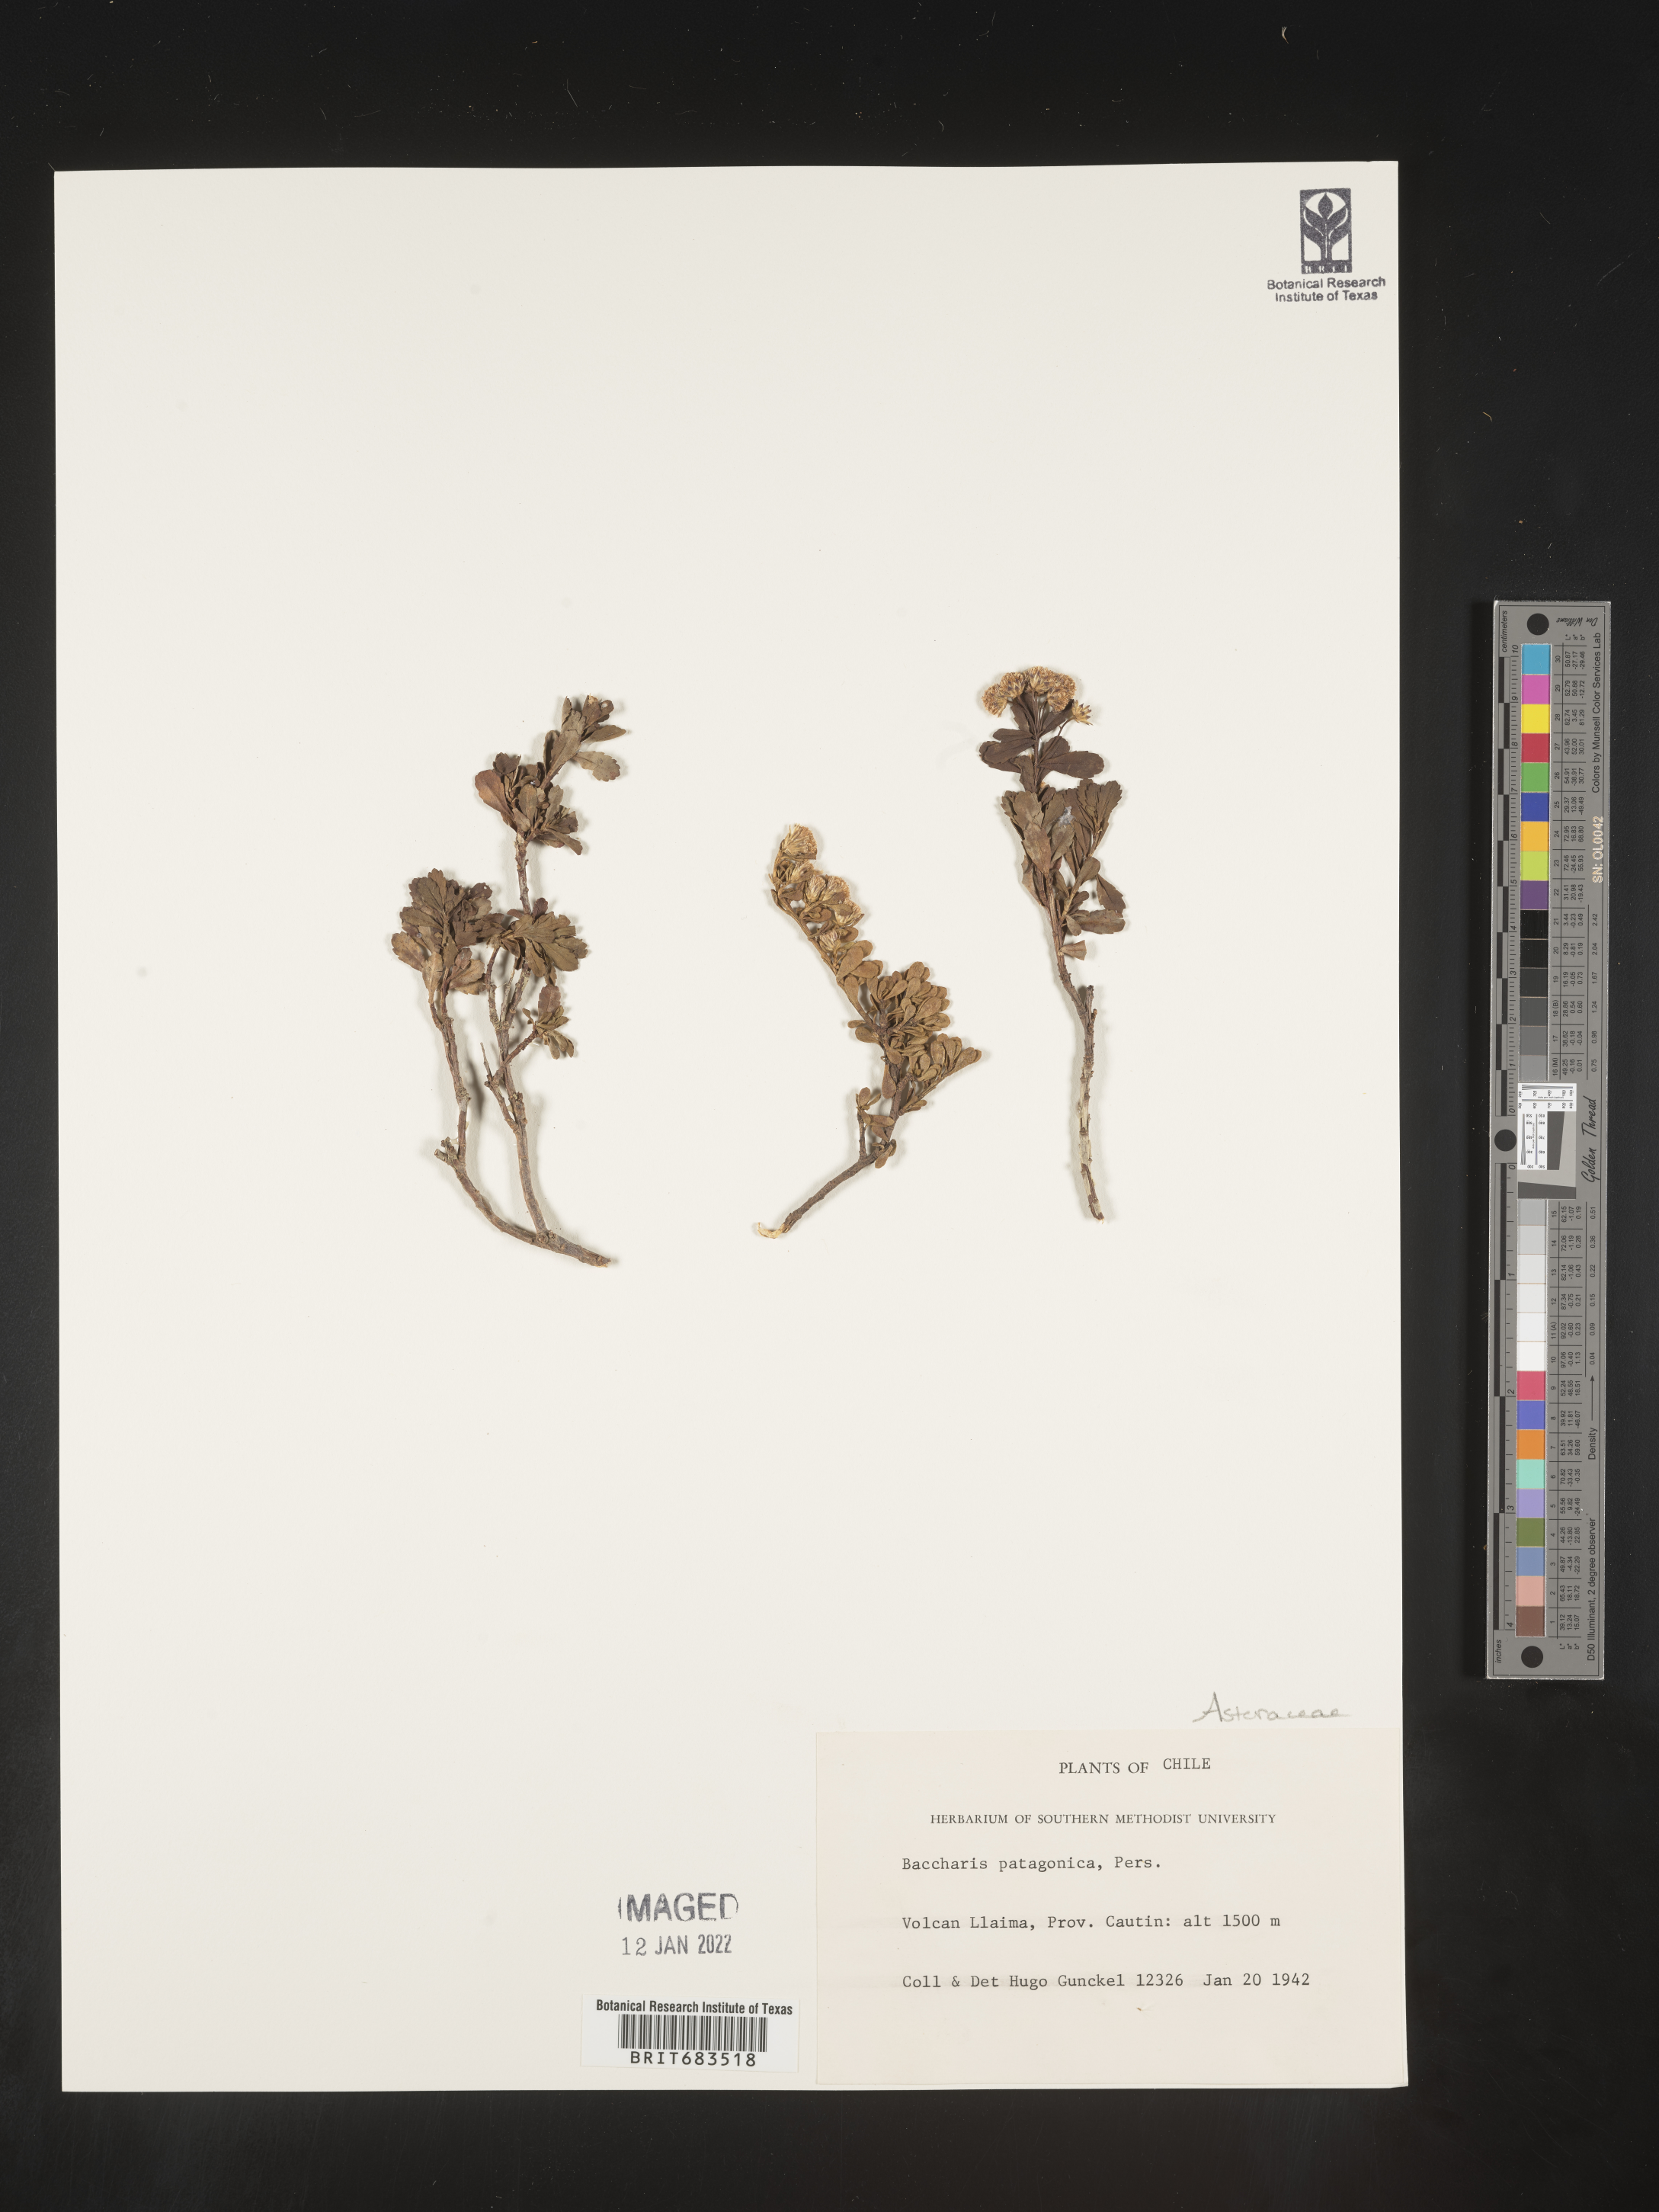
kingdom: Plantae
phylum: Tracheophyta
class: Magnoliopsida
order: Asterales
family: Asteraceae
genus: Baccharis
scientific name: Baccharis
